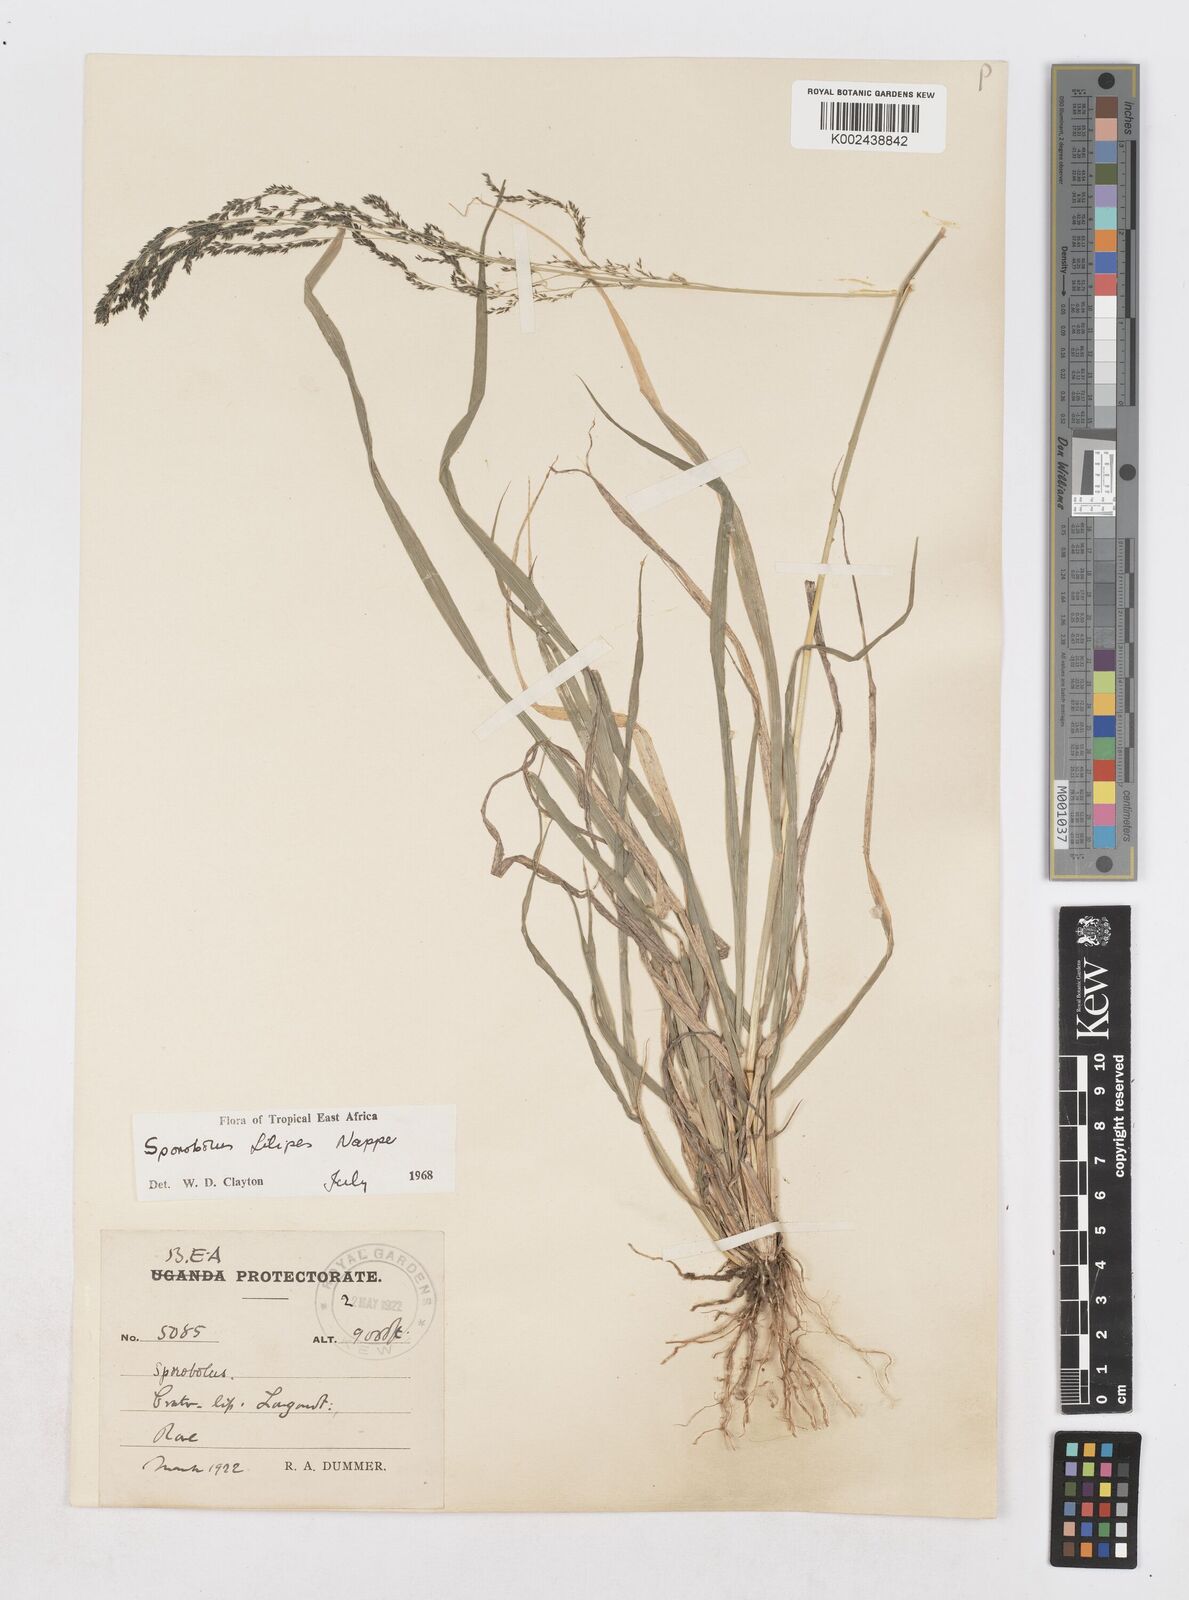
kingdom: Plantae
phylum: Tracheophyta
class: Liliopsida
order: Poales
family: Poaceae
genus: Sporobolus
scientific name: Sporobolus agrostoides
